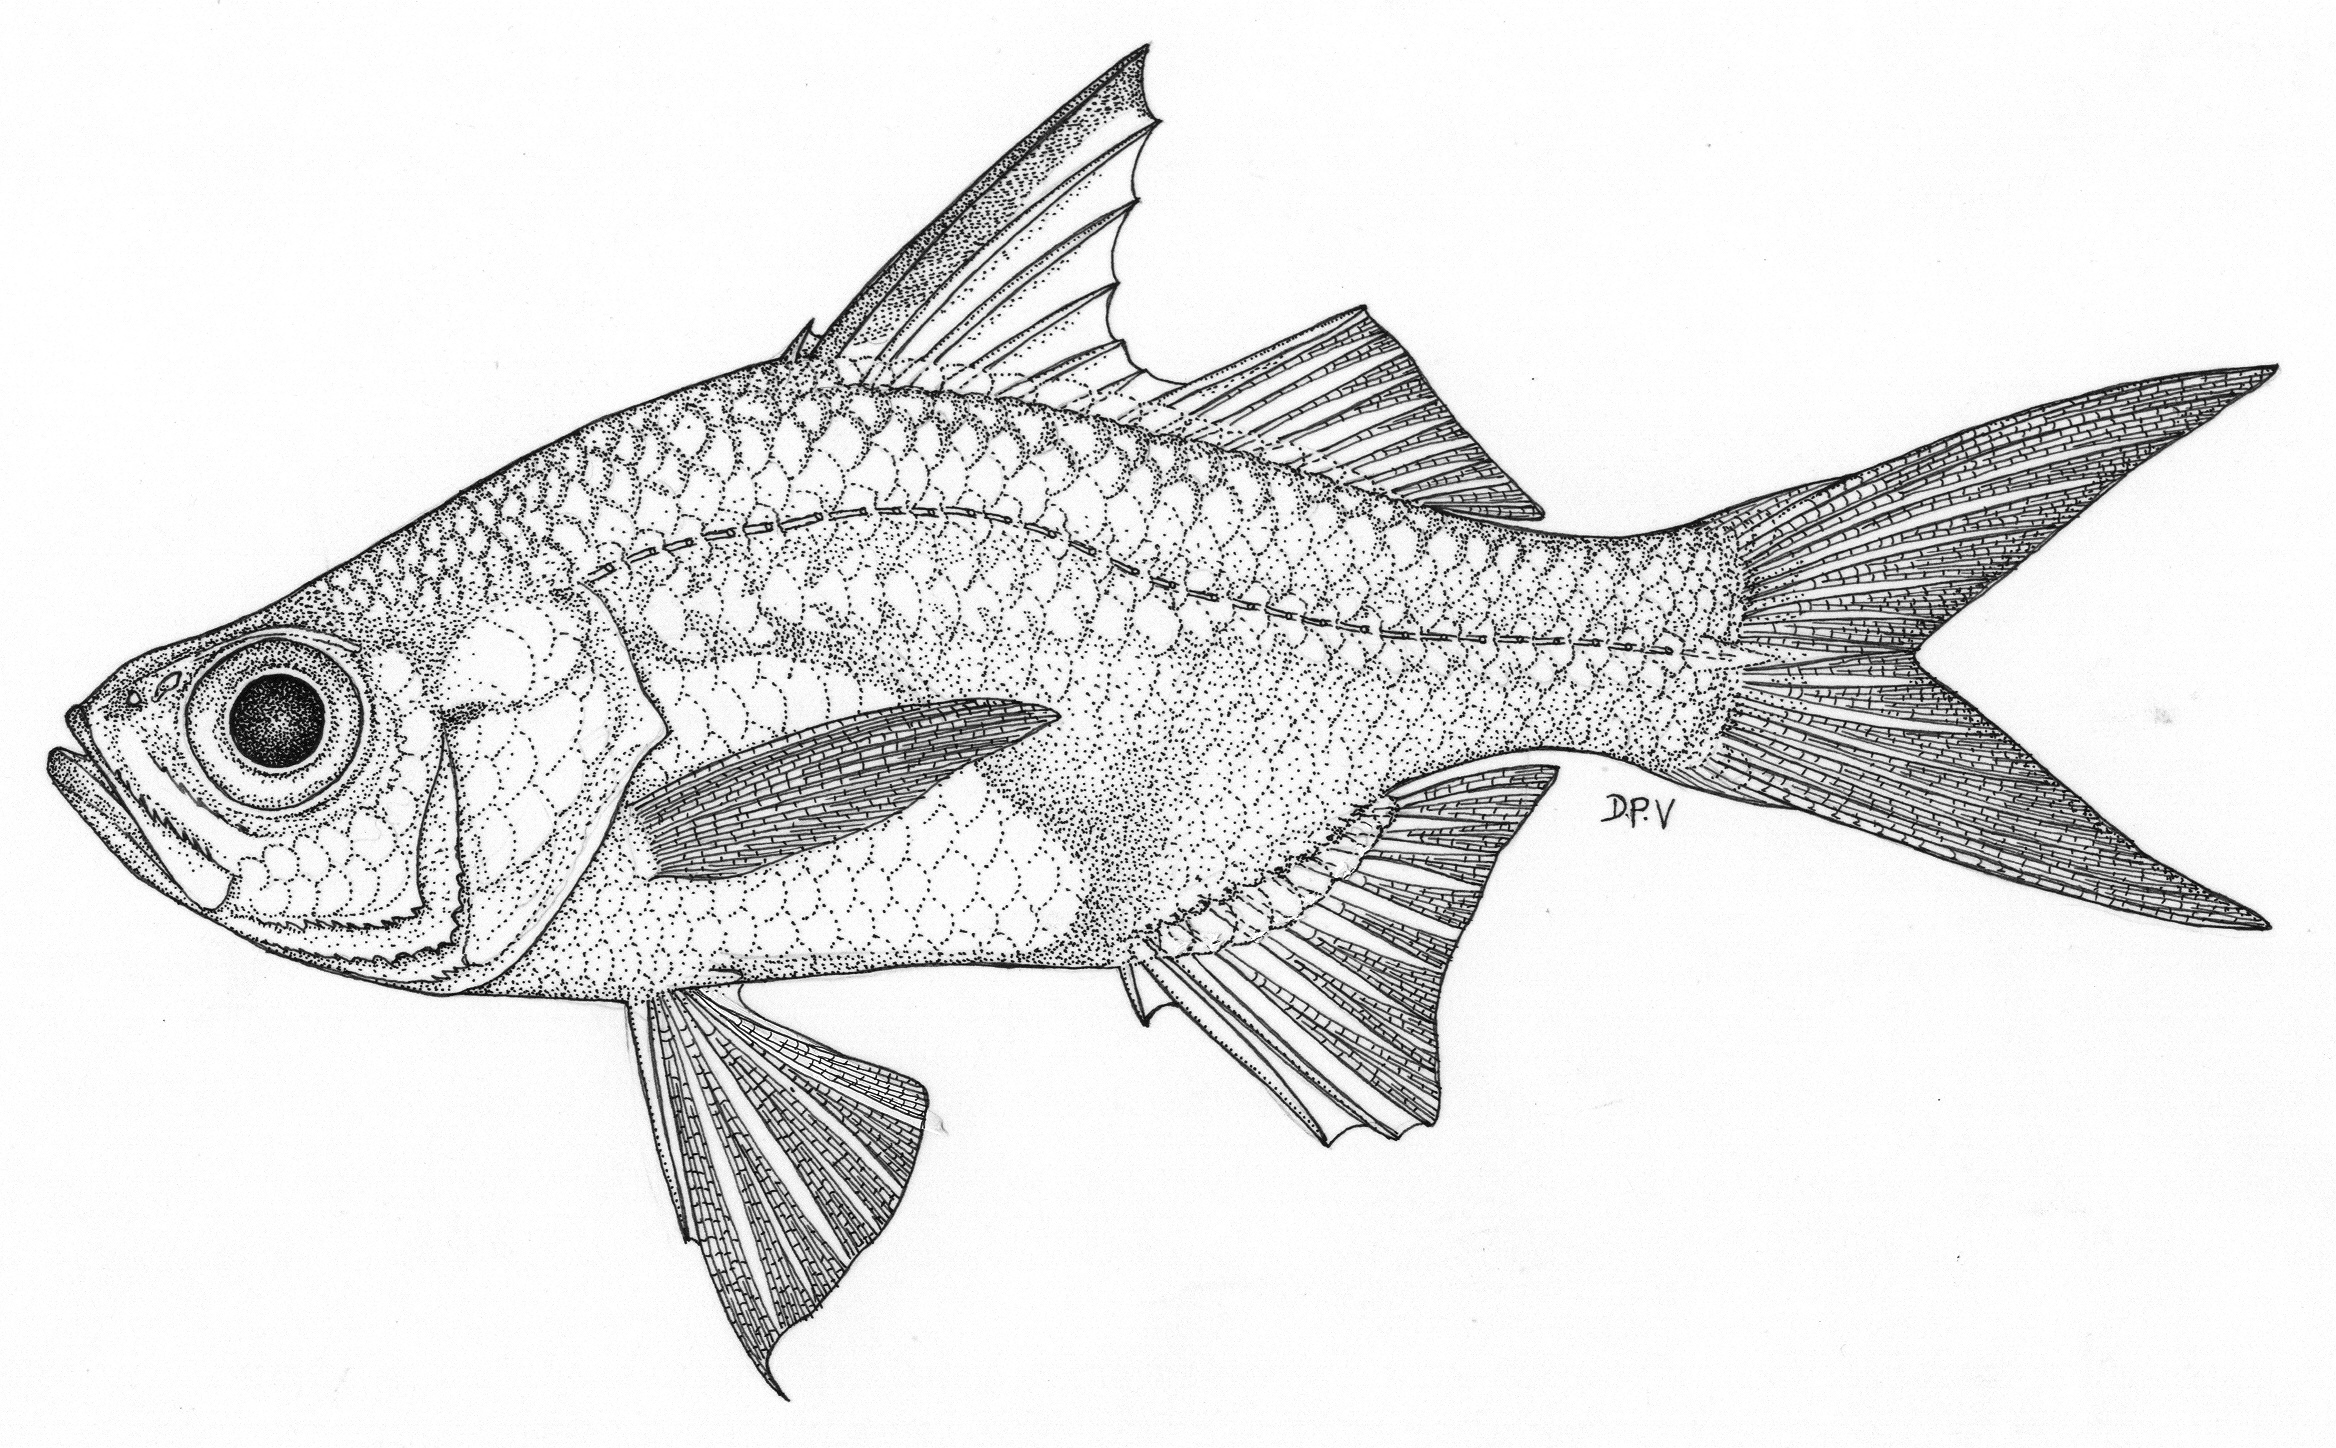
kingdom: Animalia
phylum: Chordata
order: Perciformes
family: Ambassidae
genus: Ambassis
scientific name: Ambassis ambassis
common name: Commerson's glassy perchlet
